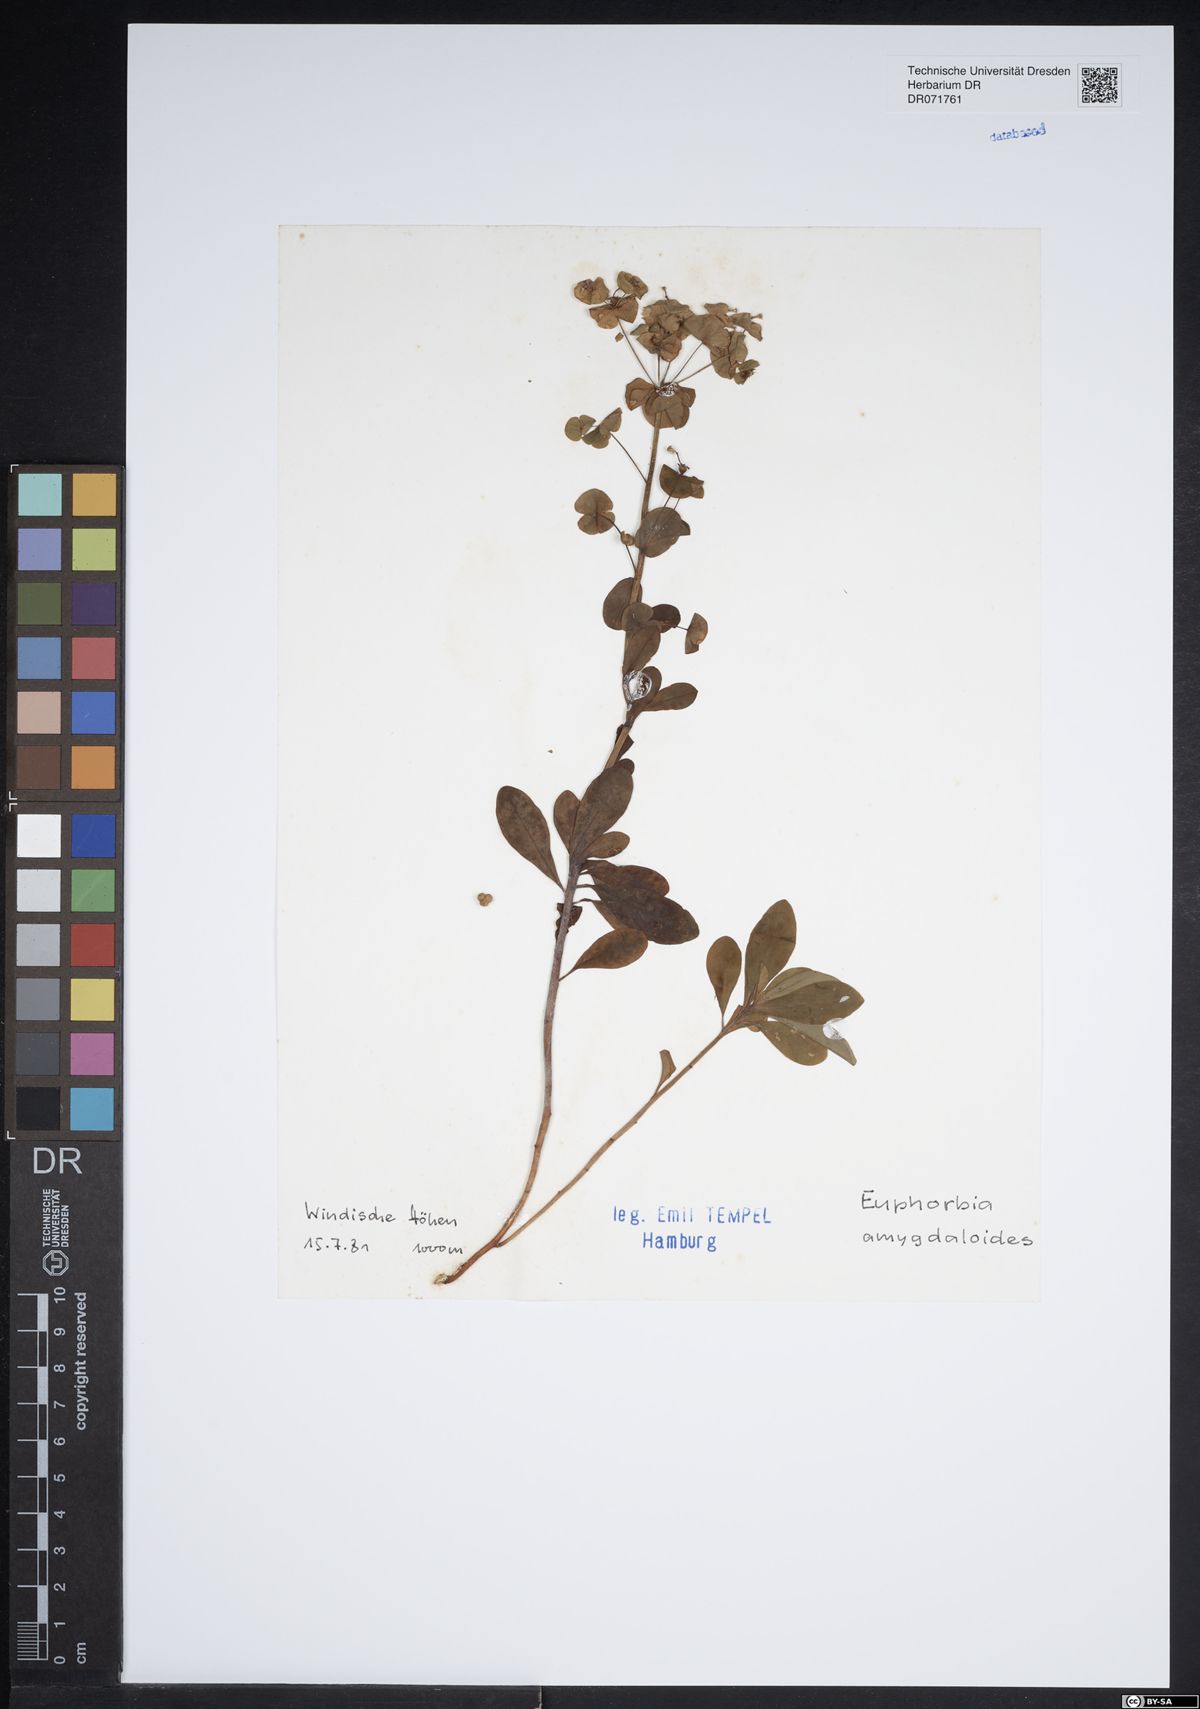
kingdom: Plantae
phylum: Tracheophyta
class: Magnoliopsida
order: Malpighiales
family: Euphorbiaceae
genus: Euphorbia
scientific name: Euphorbia amygdaloides
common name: Wood spurge
